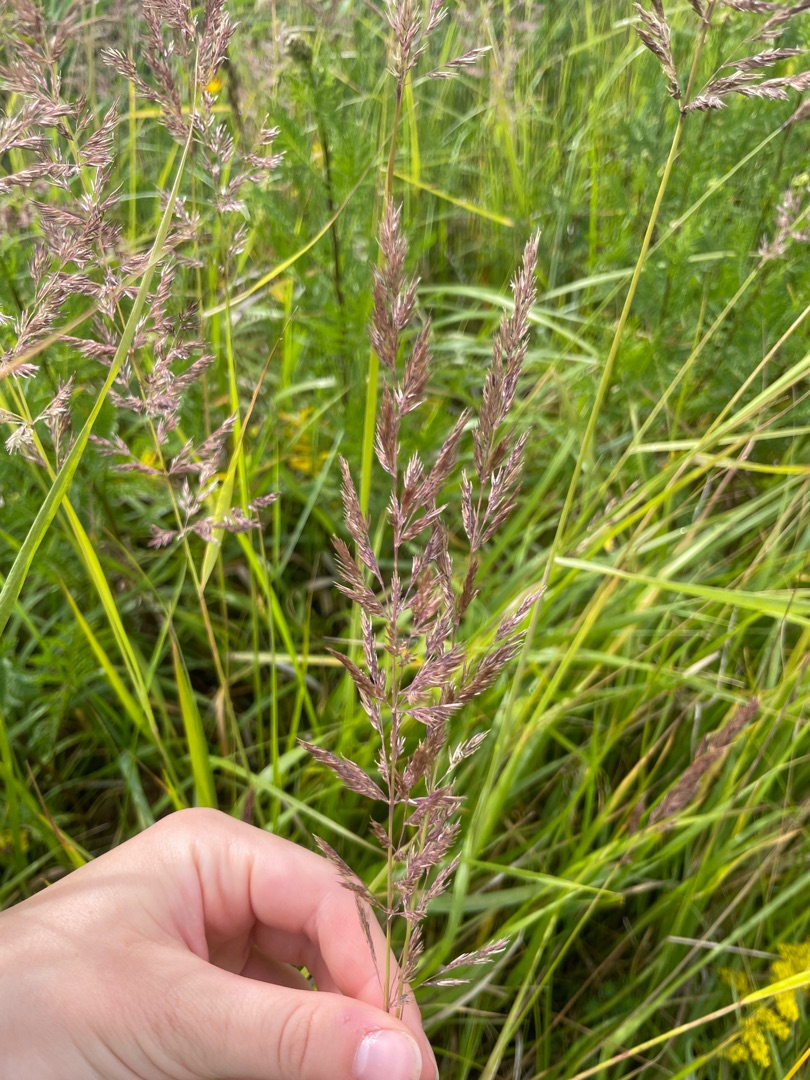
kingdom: Plantae
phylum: Tracheophyta
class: Liliopsida
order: Poales
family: Poaceae
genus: Calamagrostis
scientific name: Calamagrostis epigejos
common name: Bjerg-rørhvene
